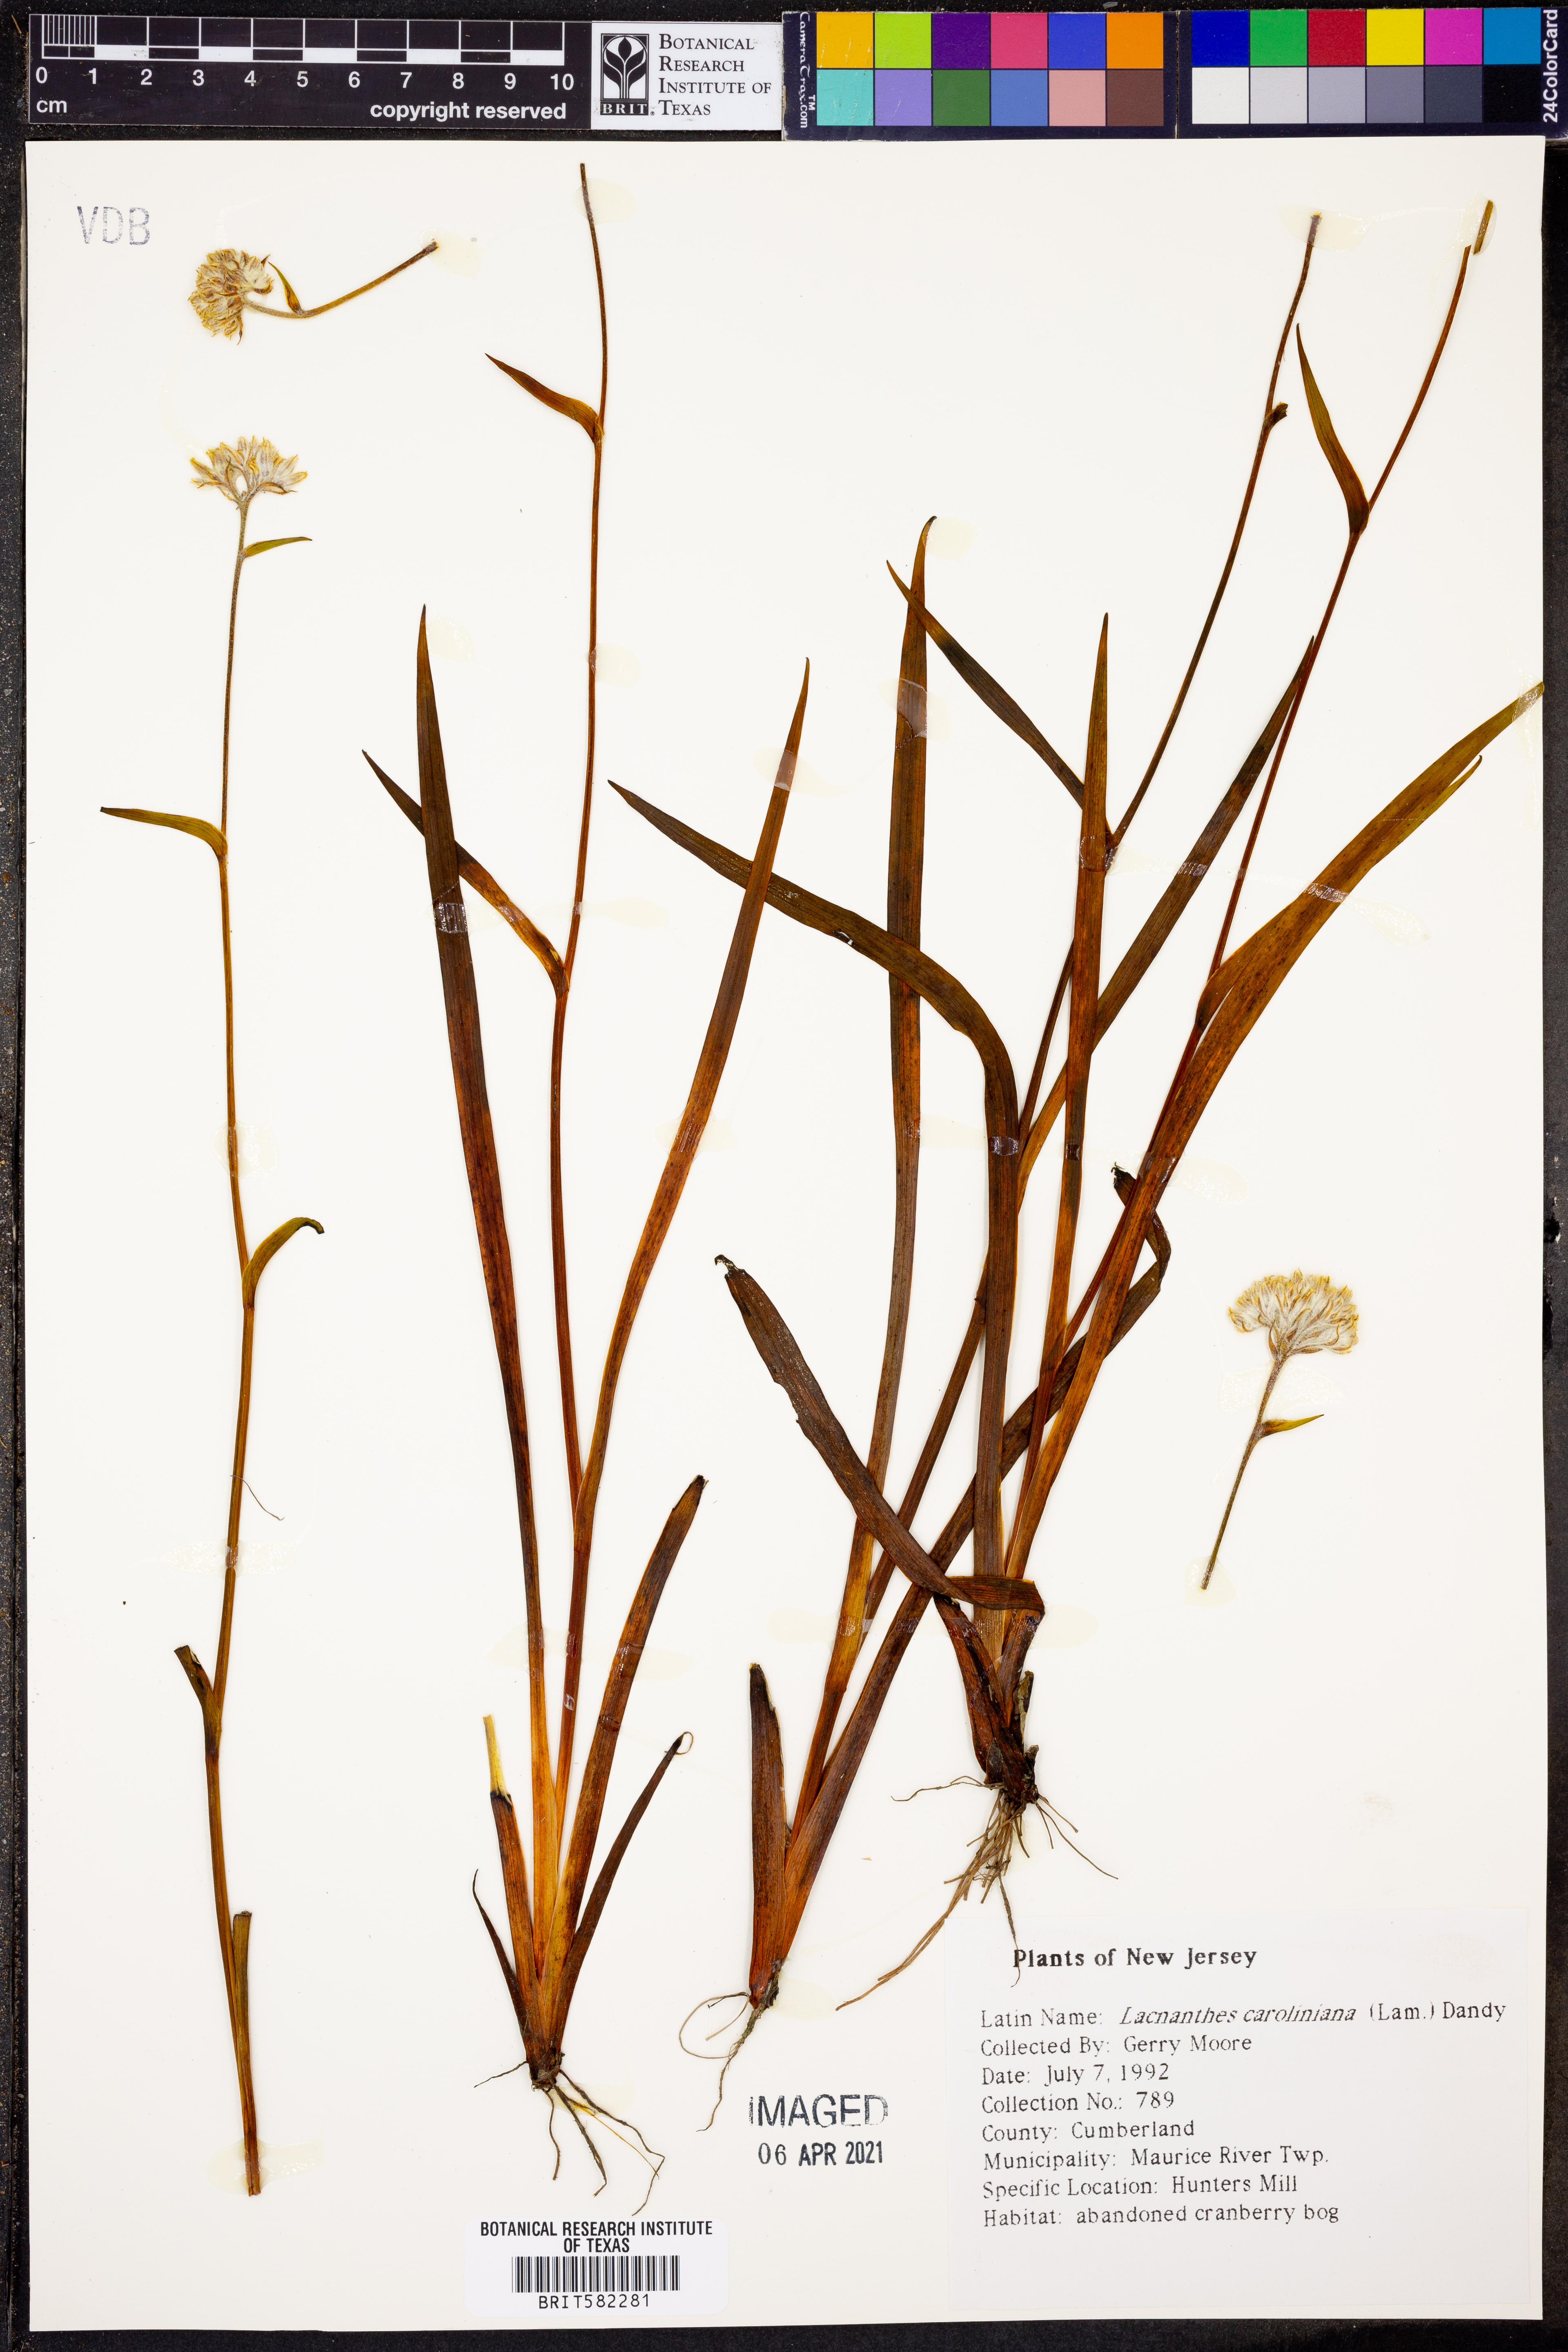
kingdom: Plantae
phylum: Tracheophyta
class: Liliopsida
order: Commelinales
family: Haemodoraceae
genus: Lachnanthes
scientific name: Lachnanthes caroliniana
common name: Carolina redroot
